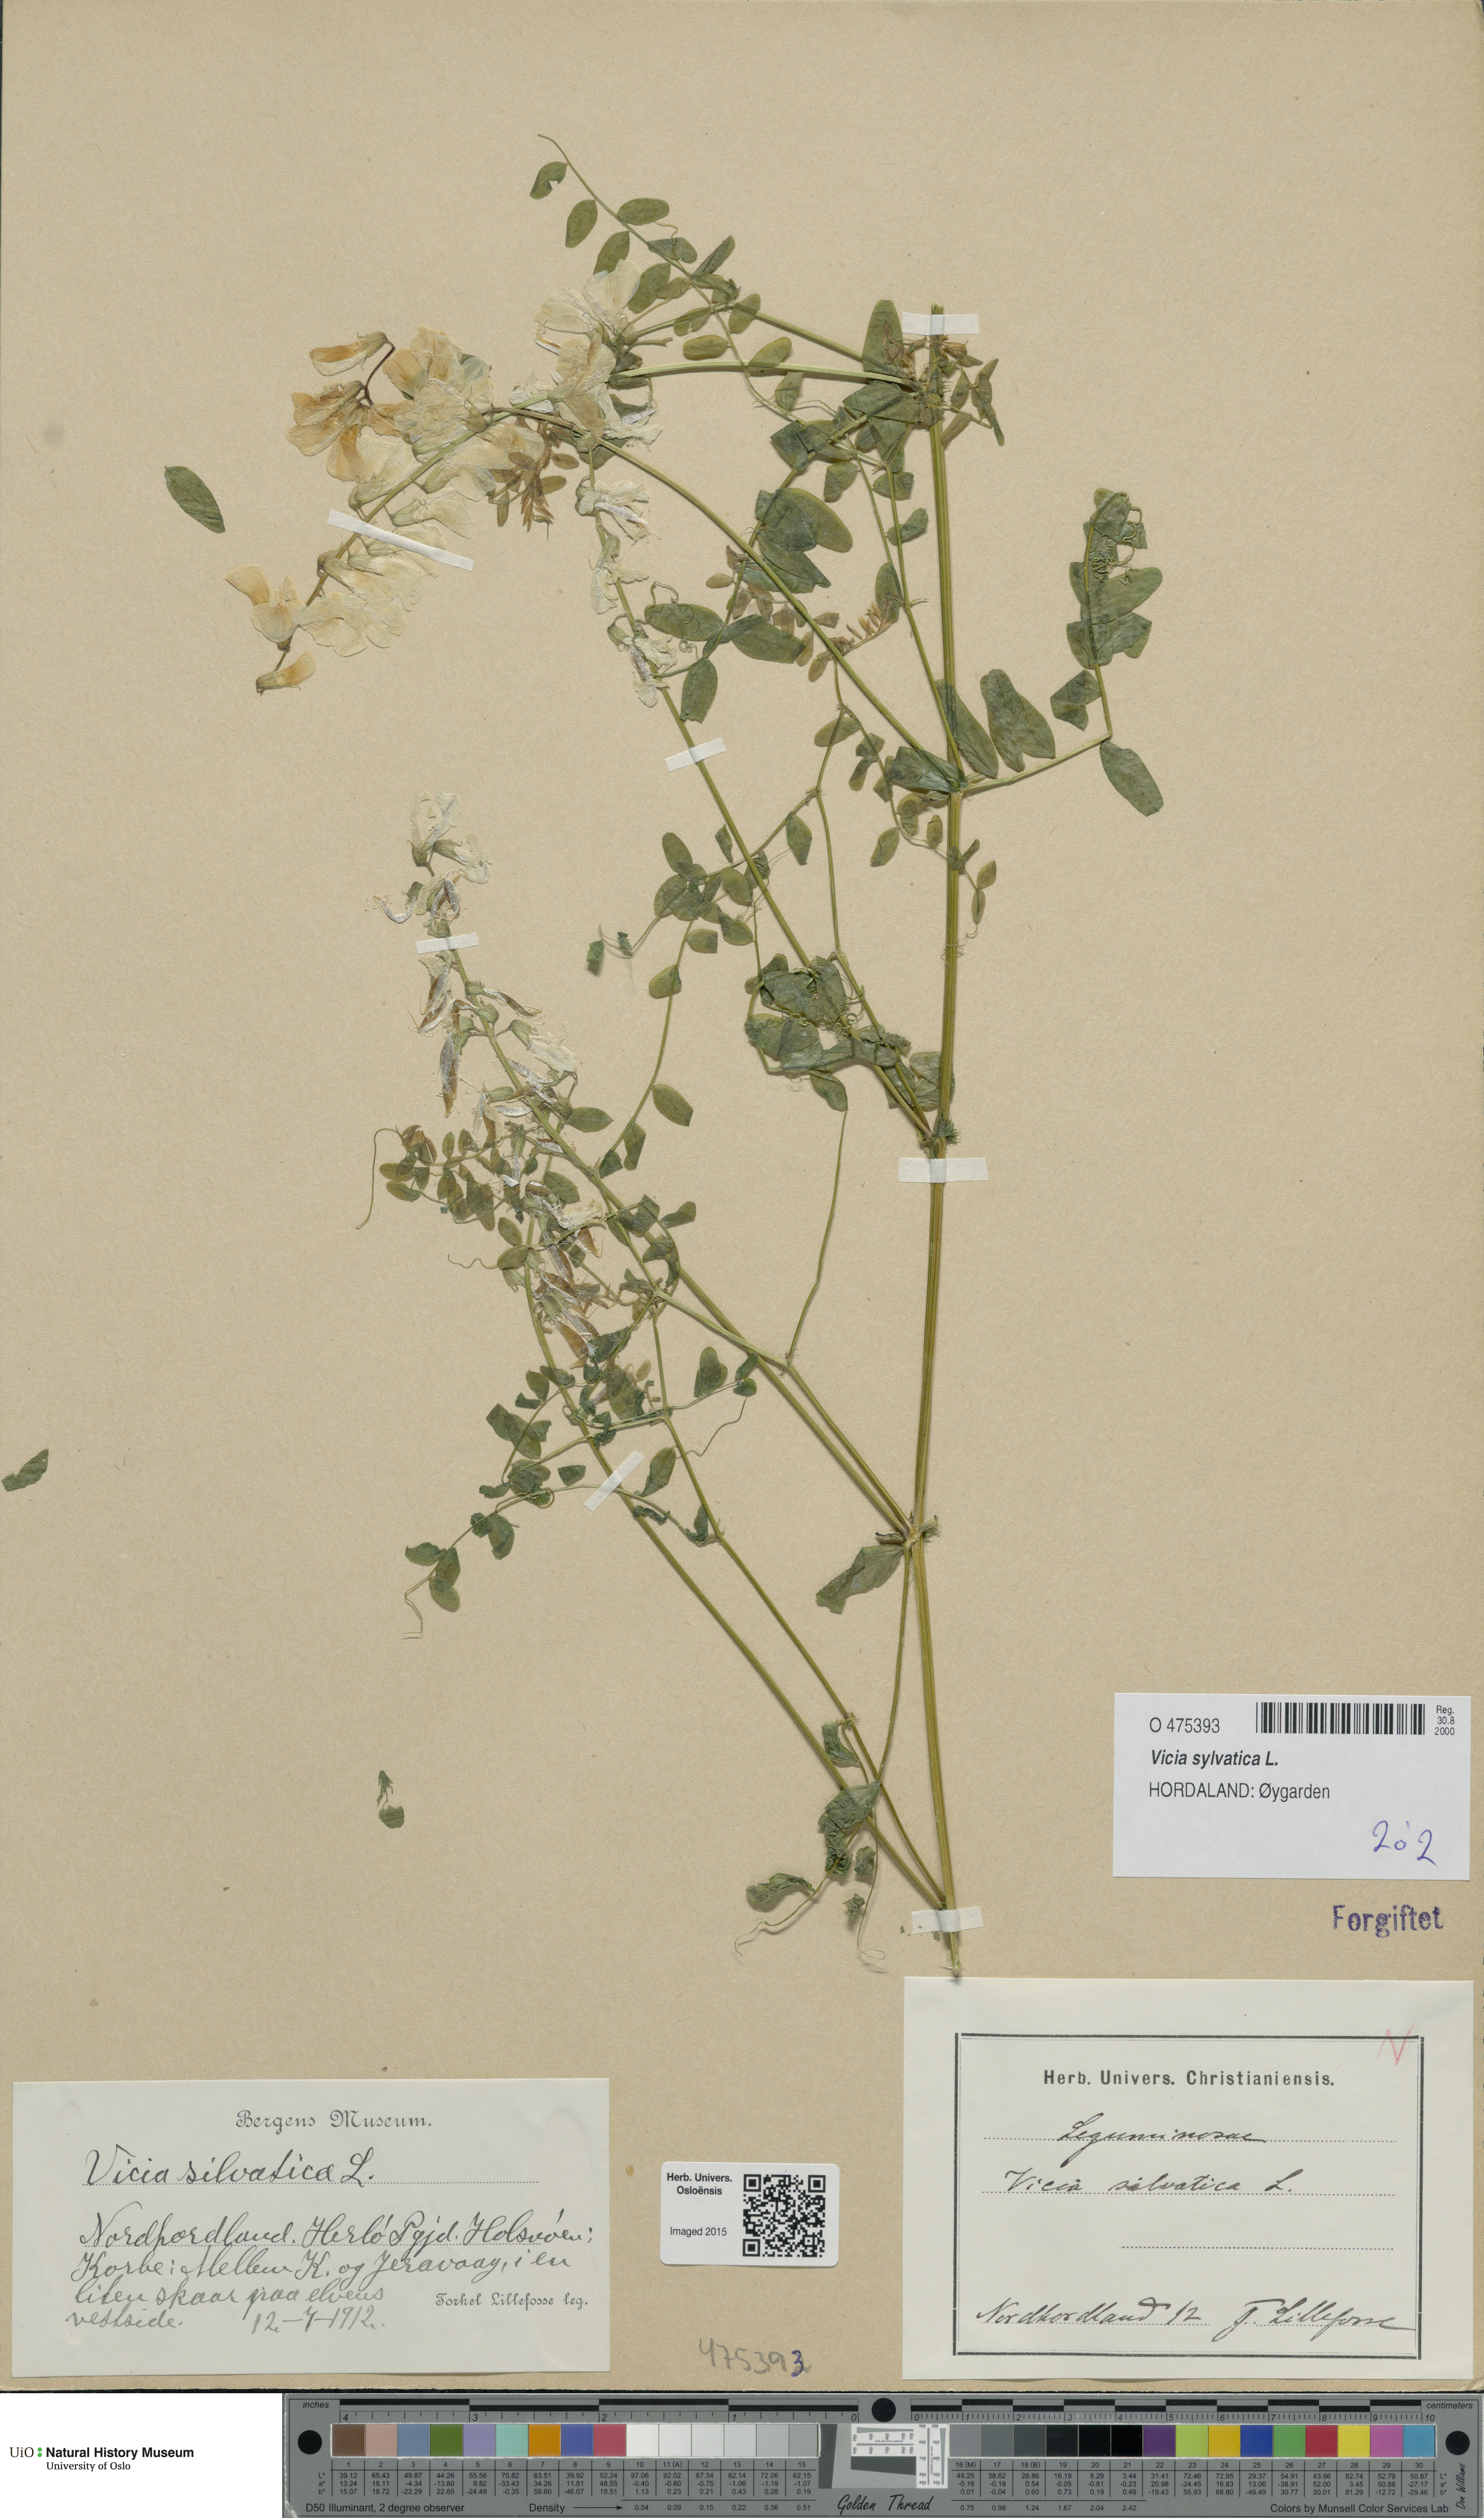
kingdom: Plantae
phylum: Tracheophyta
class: Magnoliopsida
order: Fabales
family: Fabaceae
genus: Vicia
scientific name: Vicia sylvatica
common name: Wood vetch
